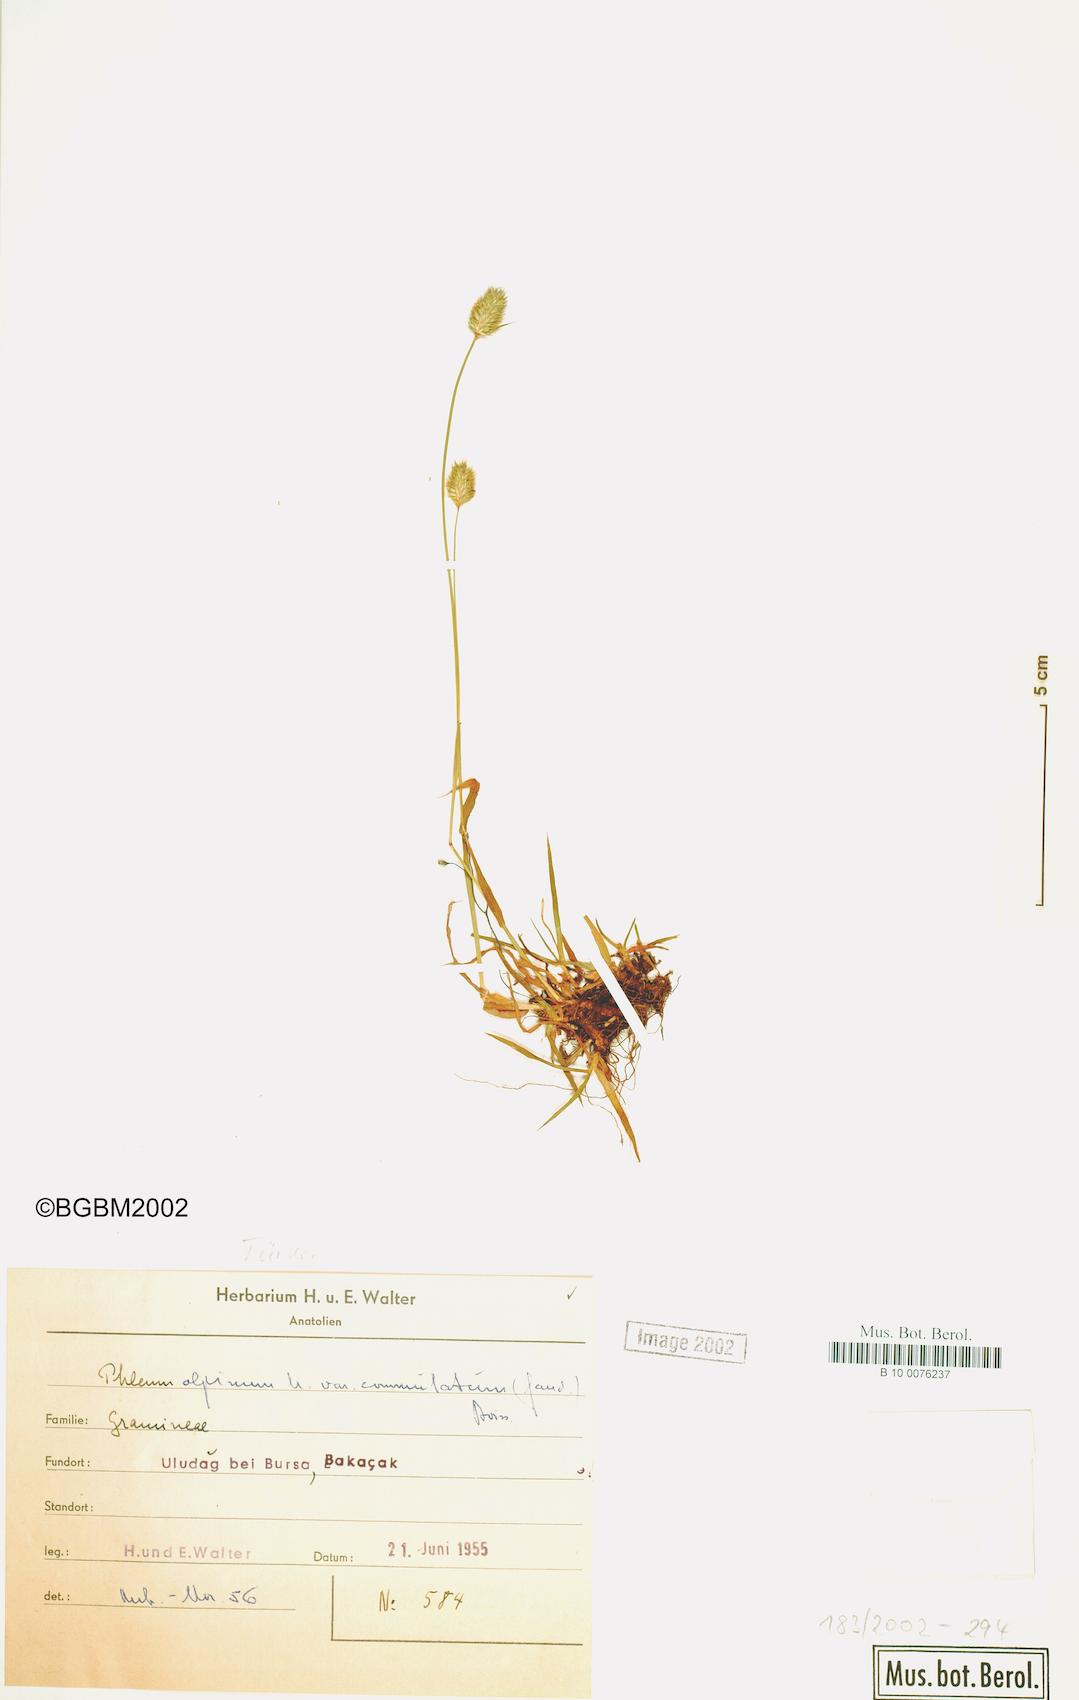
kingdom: Plantae
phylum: Tracheophyta
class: Liliopsida
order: Poales
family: Poaceae
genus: Phleum
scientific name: Phleum alpinum
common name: Alpine cat's-tail
